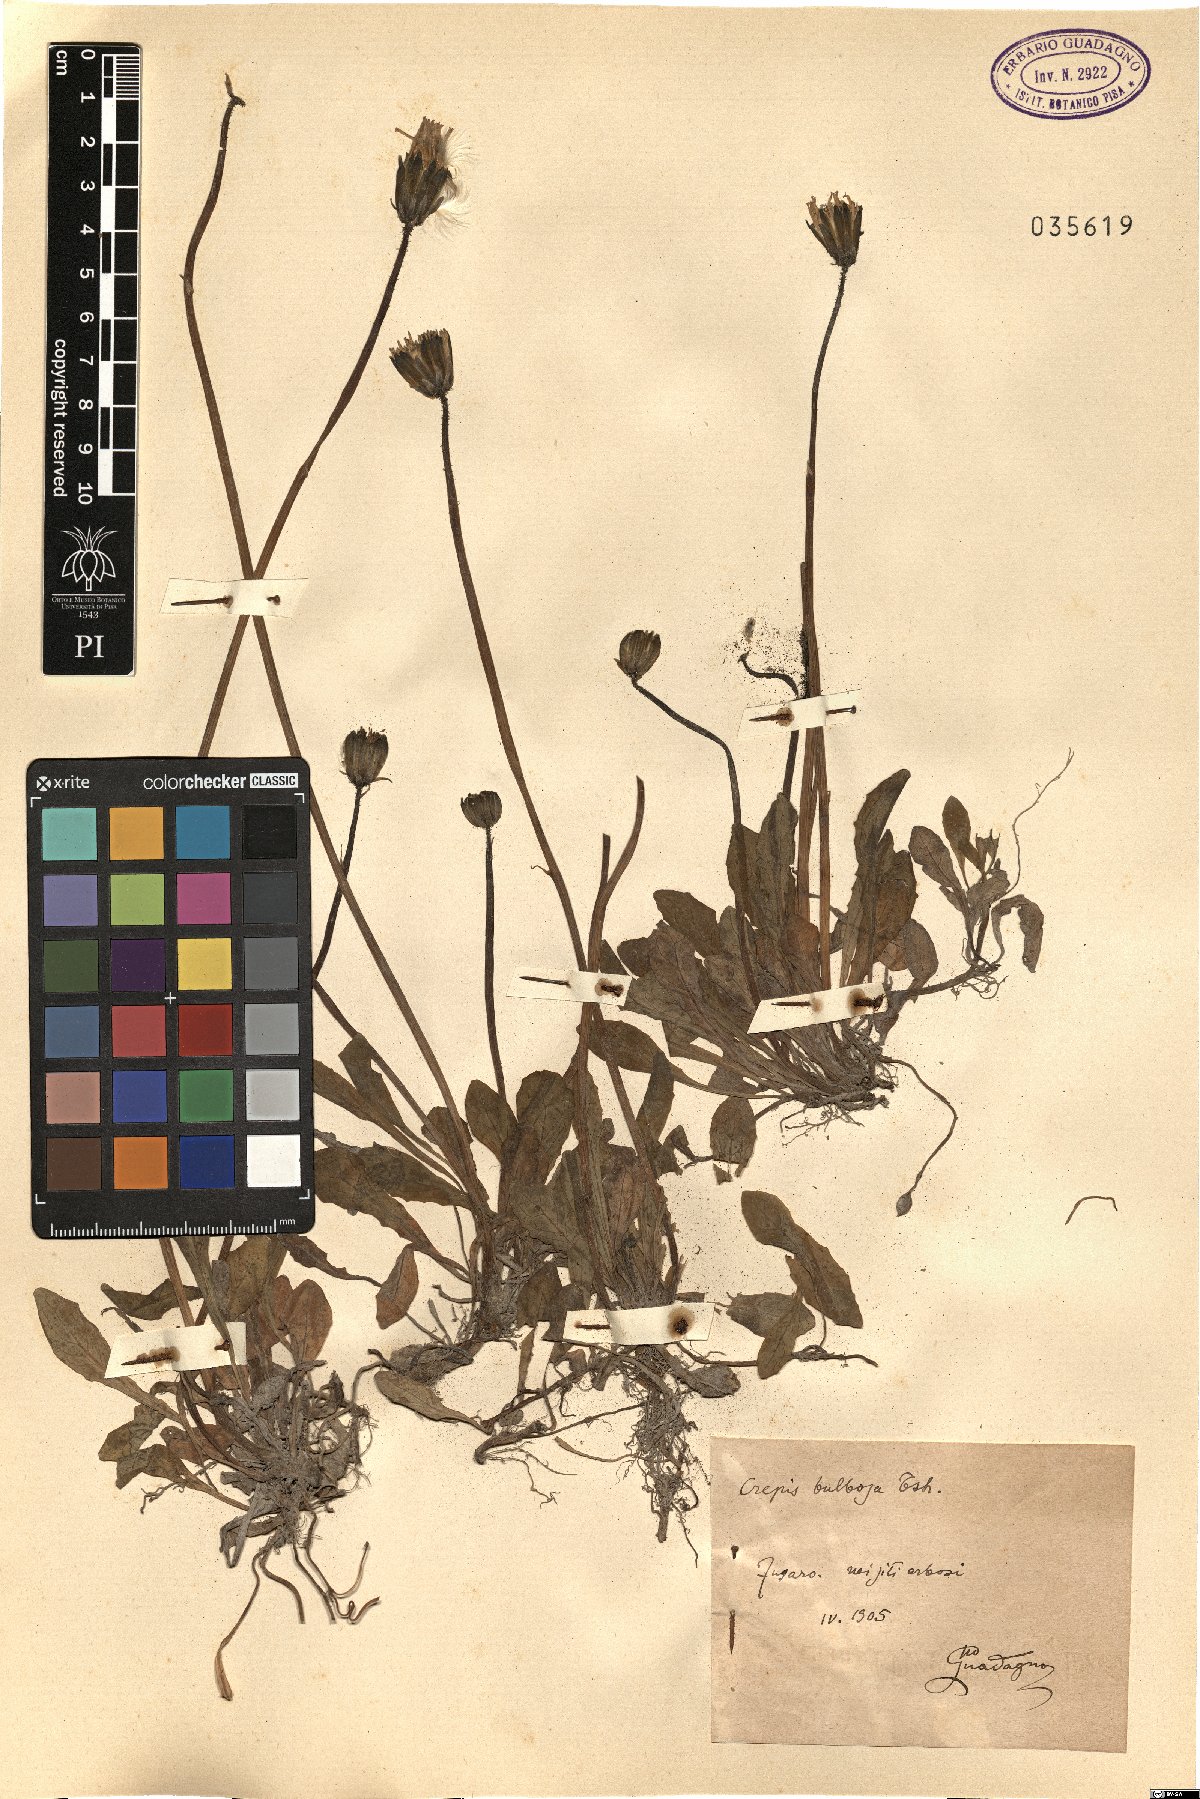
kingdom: Plantae
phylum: Tracheophyta
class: Magnoliopsida
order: Asterales
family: Asteraceae
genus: Aetheorhiza
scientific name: Aetheorhiza bulbosa
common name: Tuberous hawk's-beard
